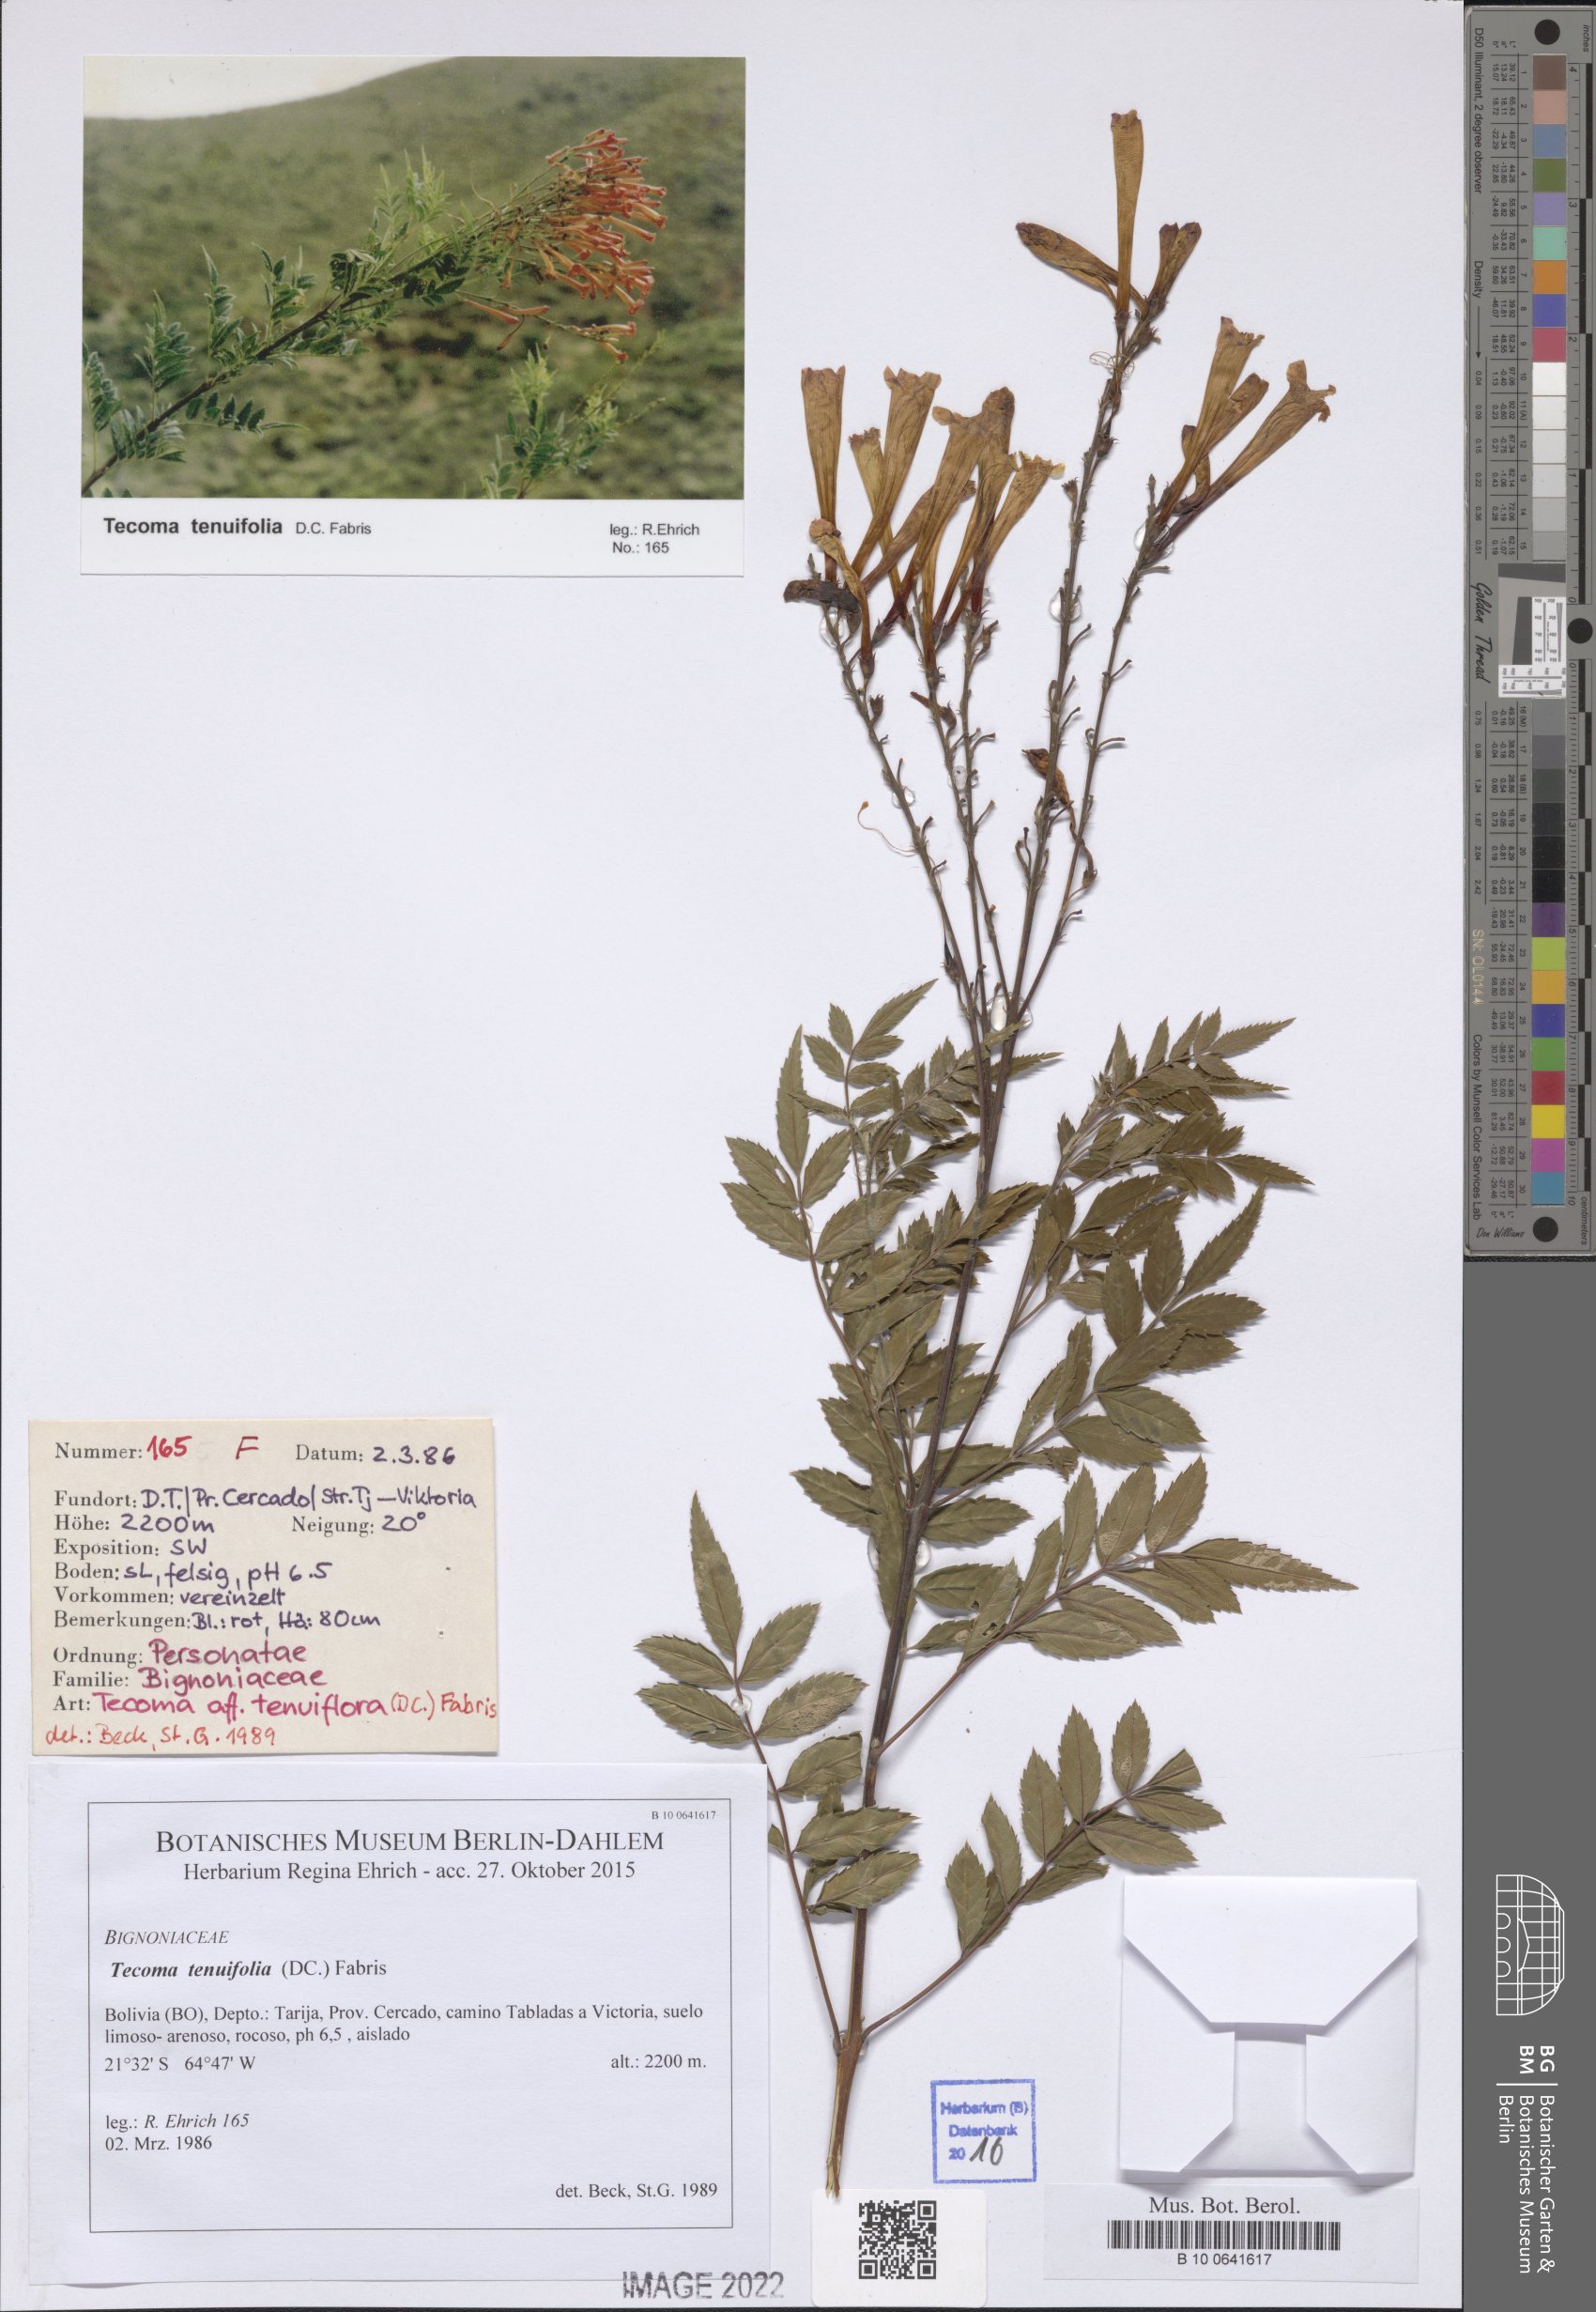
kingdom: Plantae
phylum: Tracheophyta
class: Magnoliopsida
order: Lamiales
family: Bignoniaceae
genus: Tecoma
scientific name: Tecoma tenuiflora
